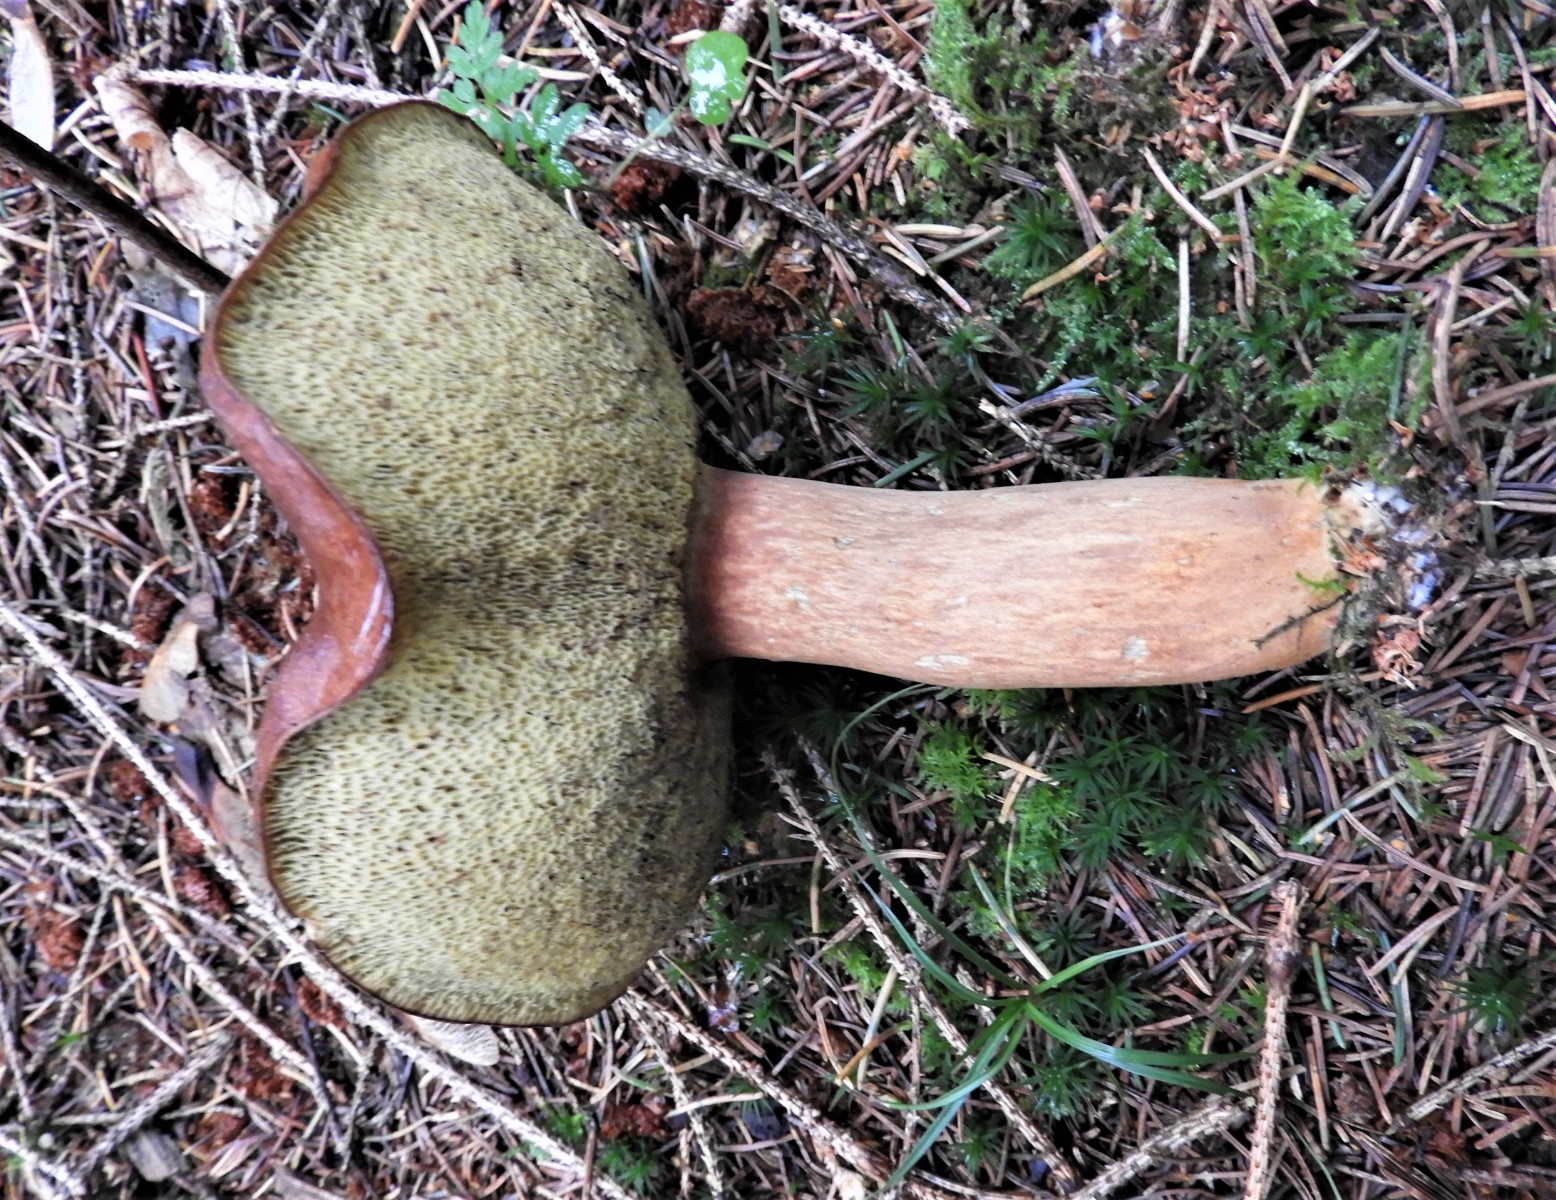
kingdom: Fungi
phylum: Basidiomycota
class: Agaricomycetes
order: Boletales
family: Boletaceae
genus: Imleria
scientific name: Imleria badia
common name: brunstokket rørhat
